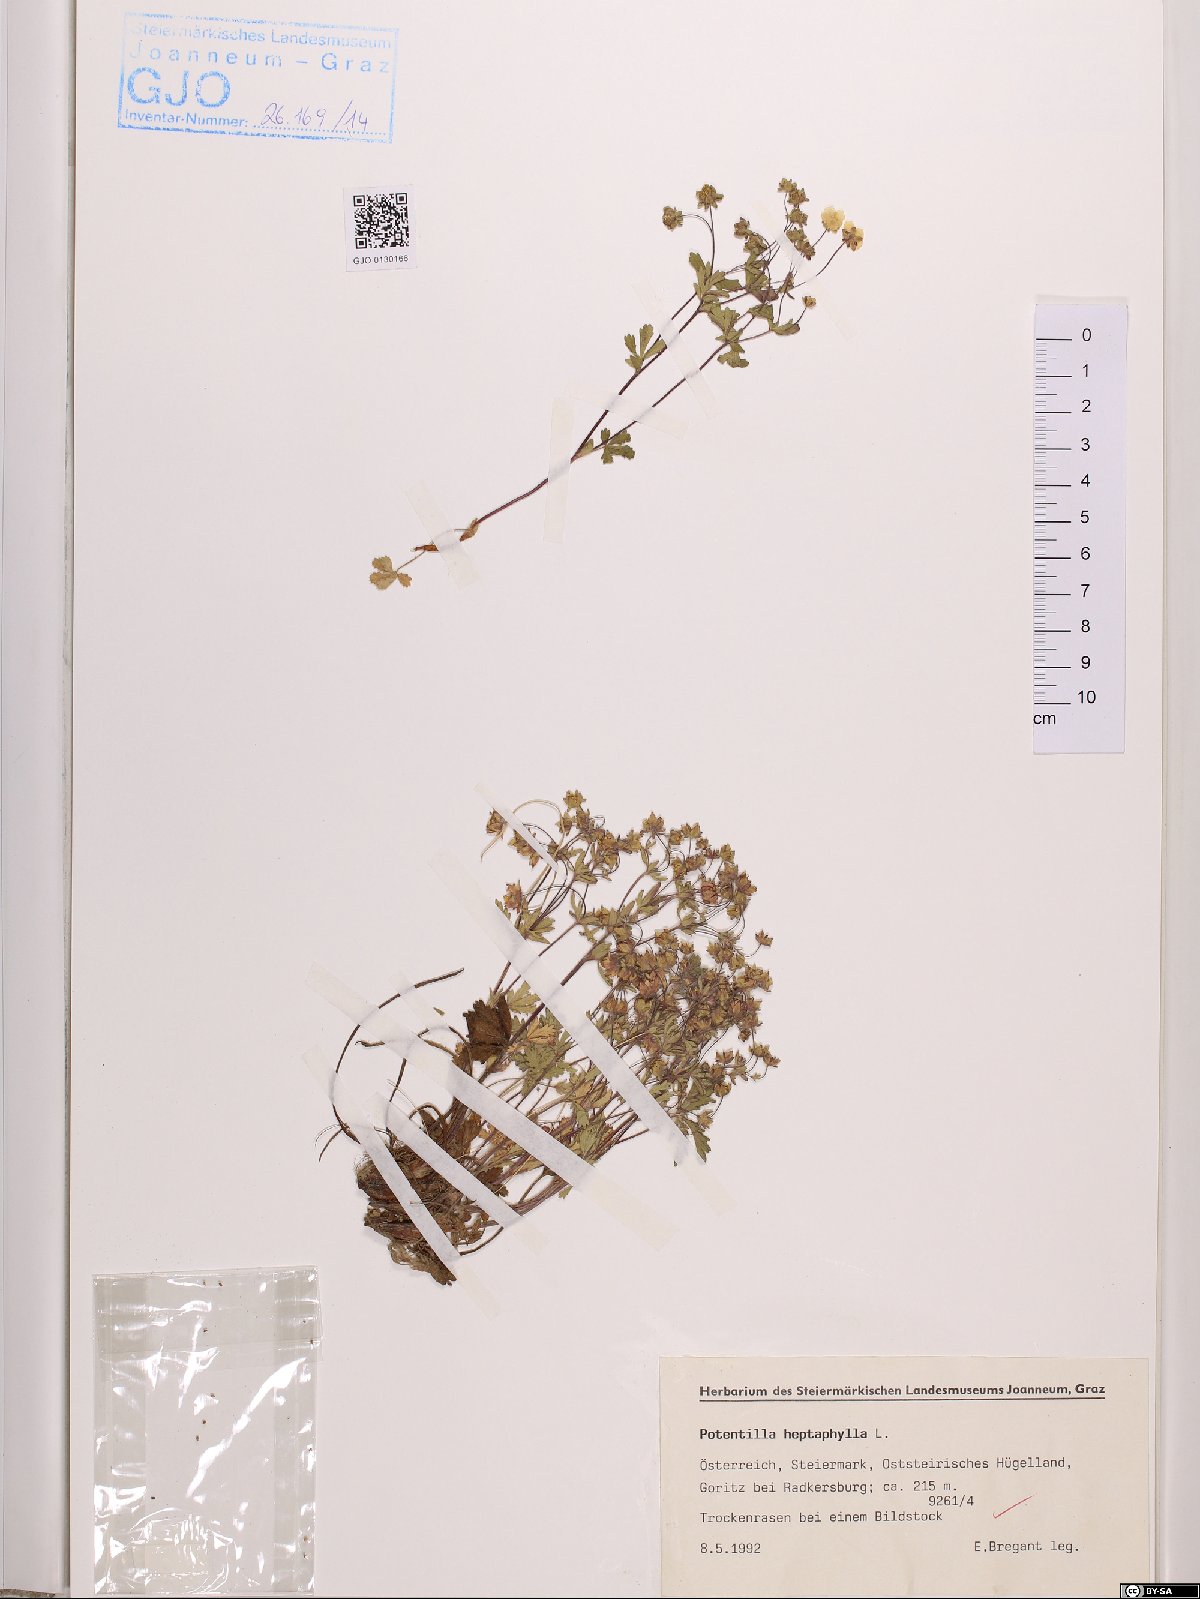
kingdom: Plantae
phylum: Tracheophyta
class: Magnoliopsida
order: Rosales
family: Rosaceae
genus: Potentilla
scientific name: Potentilla heptaphylla
